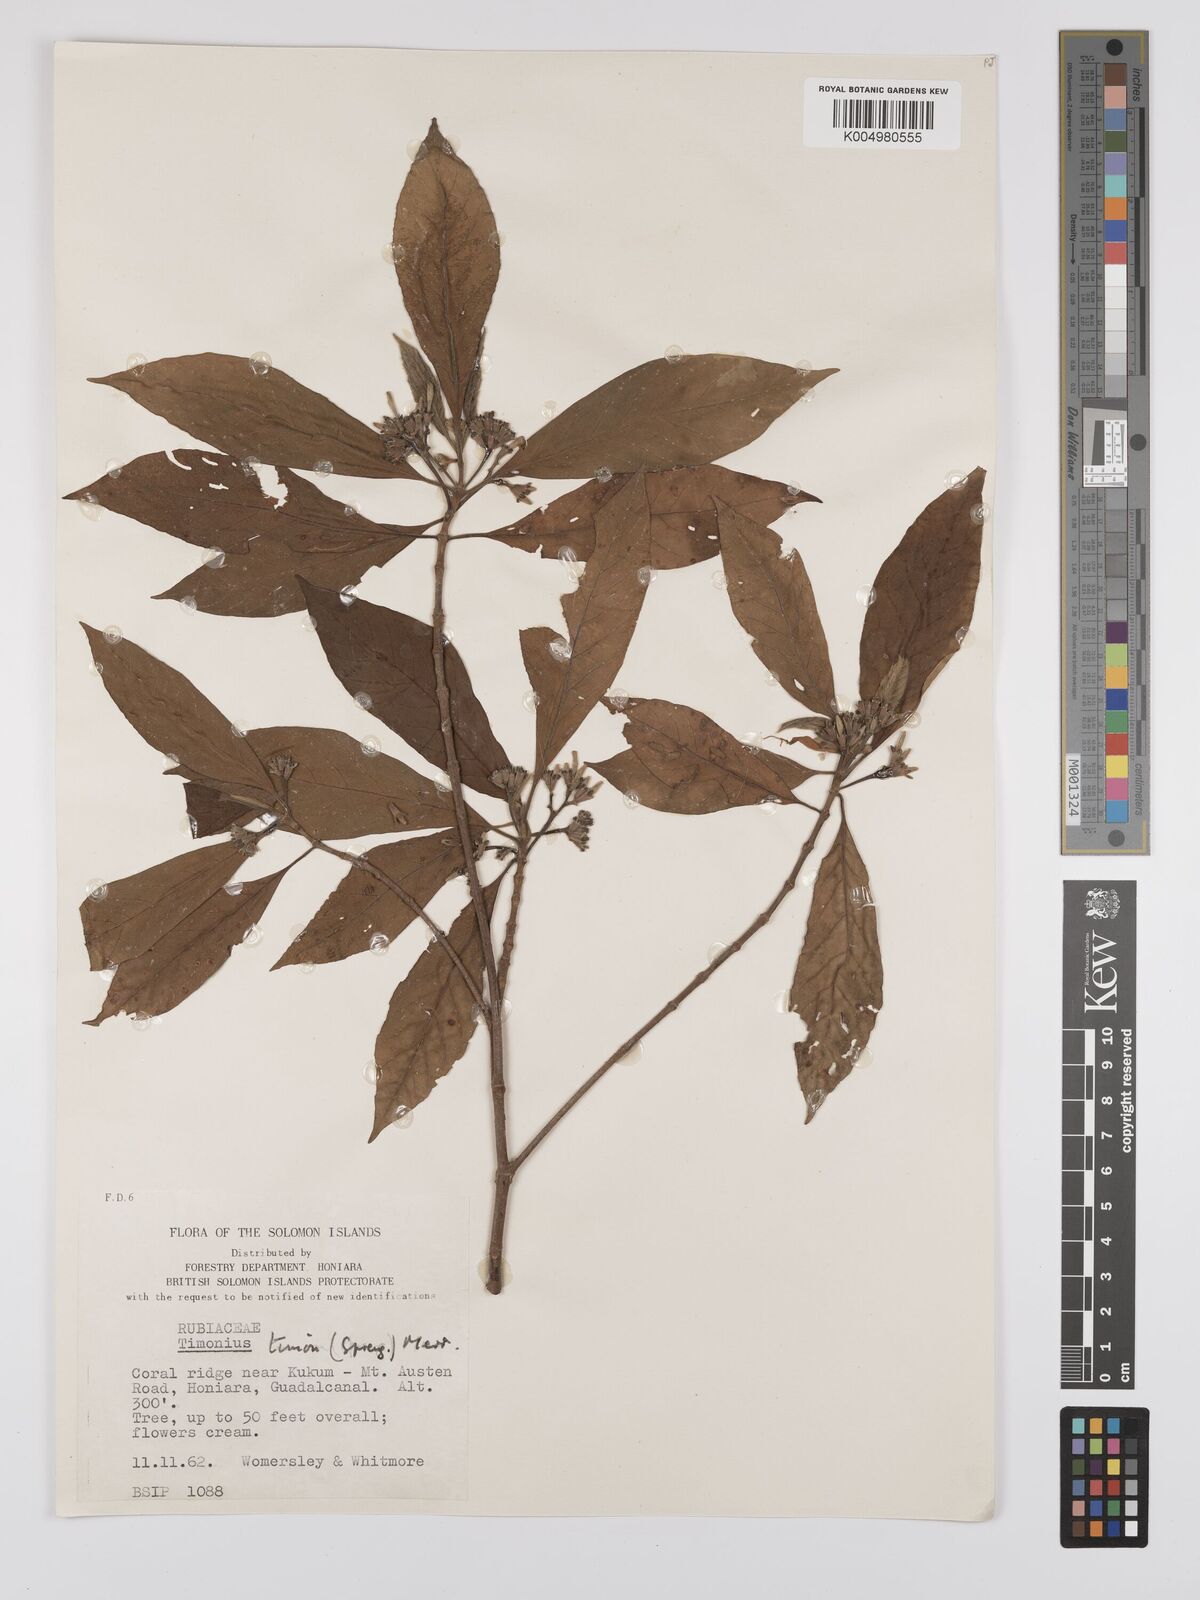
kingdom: Plantae
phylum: Tracheophyta
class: Magnoliopsida
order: Gentianales
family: Rubiaceae
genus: Timonius
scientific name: Timonius timon
